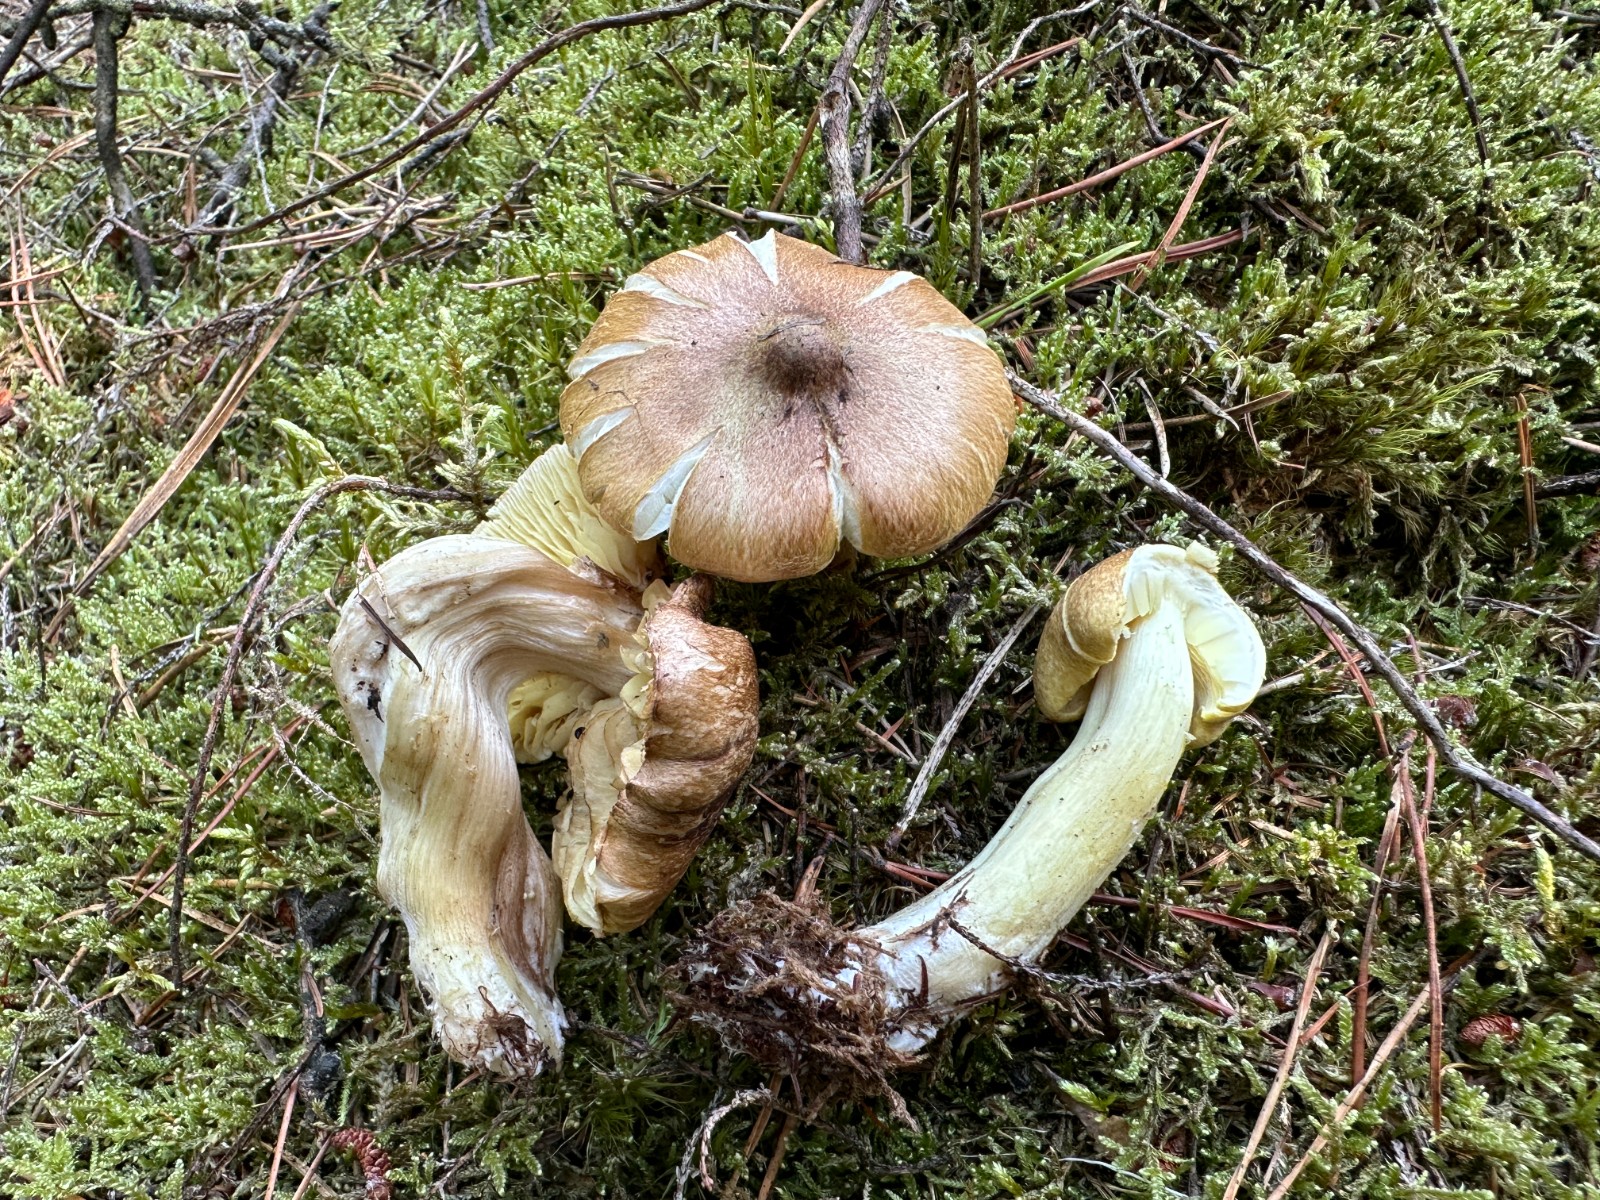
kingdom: Fungi
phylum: Basidiomycota
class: Agaricomycetes
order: Agaricales
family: Tricholomataceae
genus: Tricholoma
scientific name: Tricholoma aestuans
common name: kegle-ridderhat
